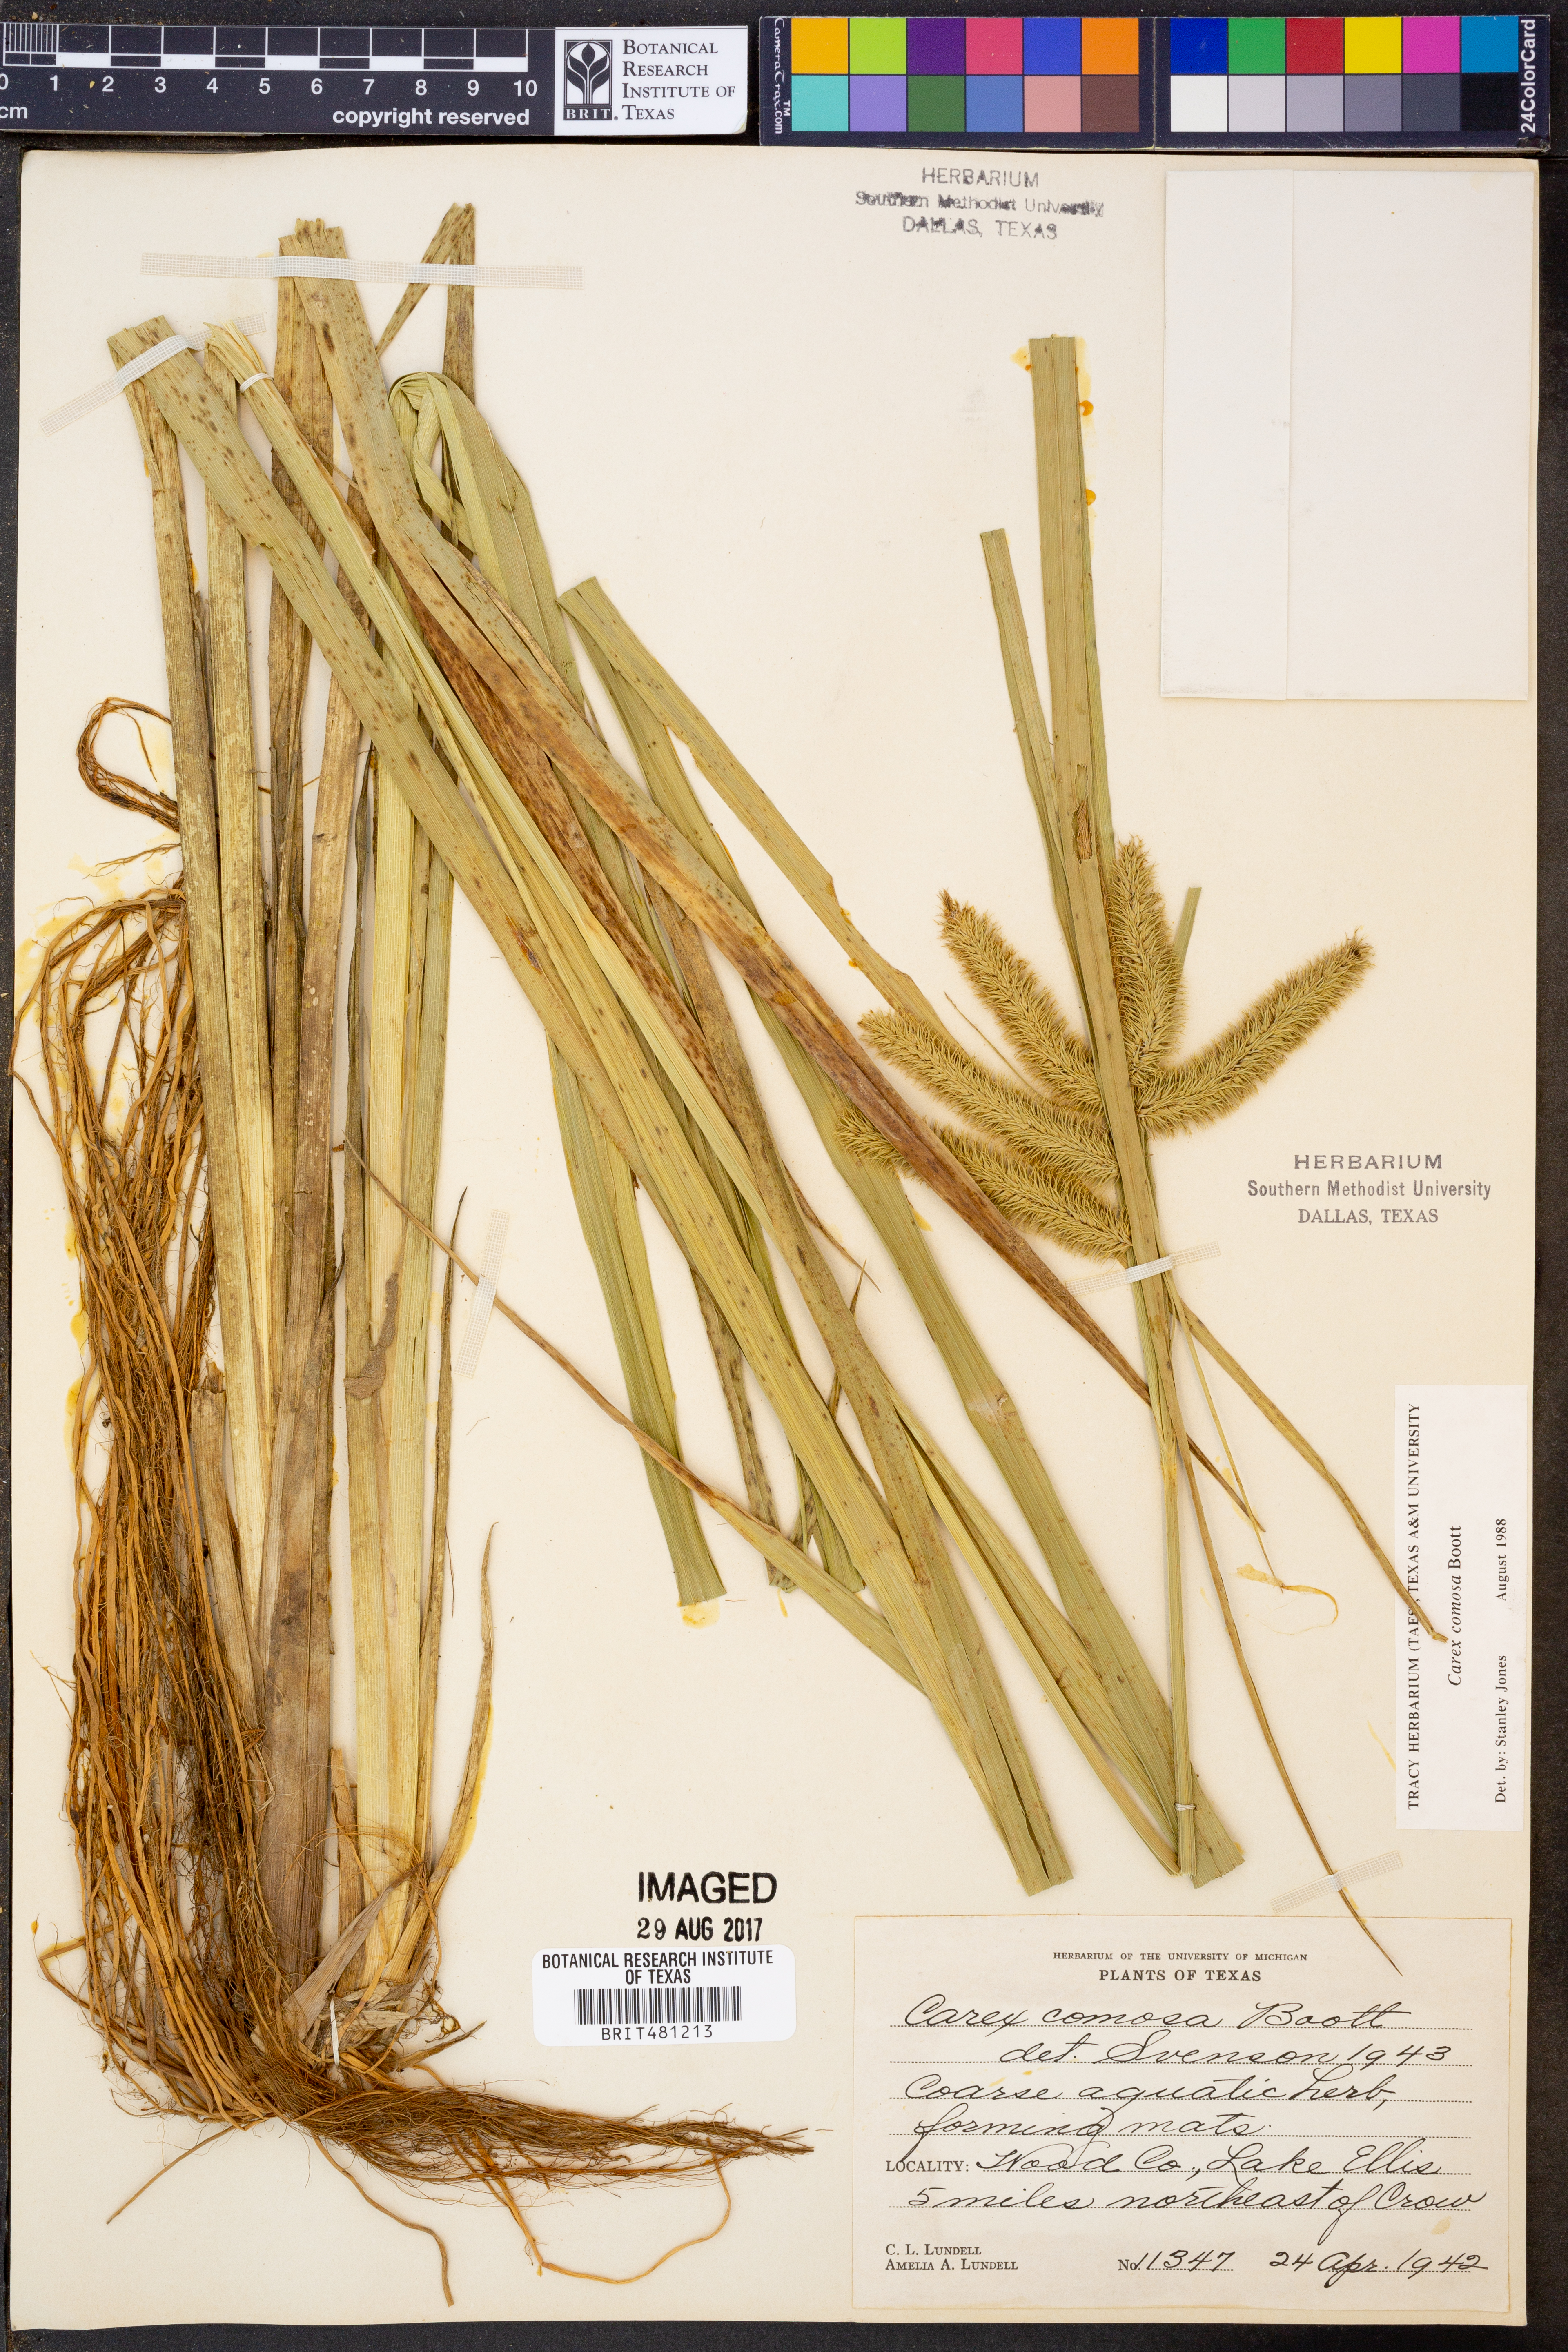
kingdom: Plantae
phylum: Tracheophyta
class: Liliopsida
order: Poales
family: Cyperaceae
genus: Carex
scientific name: Carex comosa
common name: Bristly sedge
